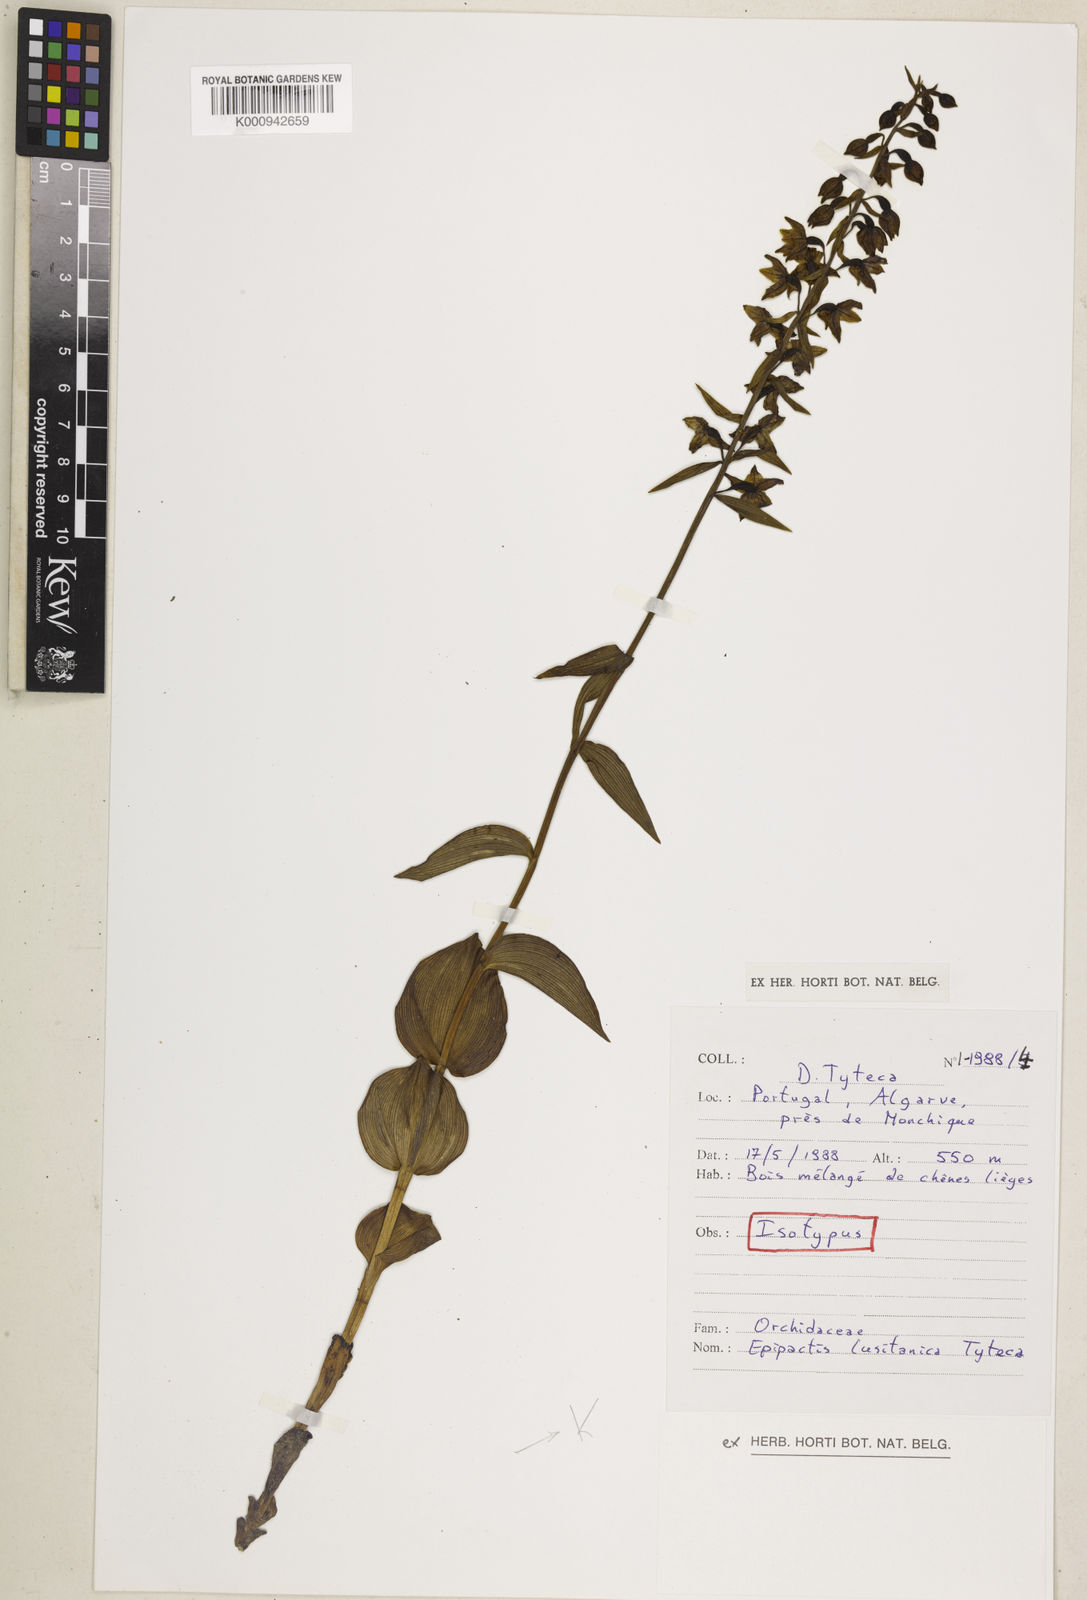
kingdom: Plantae
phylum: Tracheophyta
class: Liliopsida
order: Asparagales
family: Orchidaceae
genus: Epipactis
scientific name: Epipactis helleborine
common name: Broad-leaved helleborine
